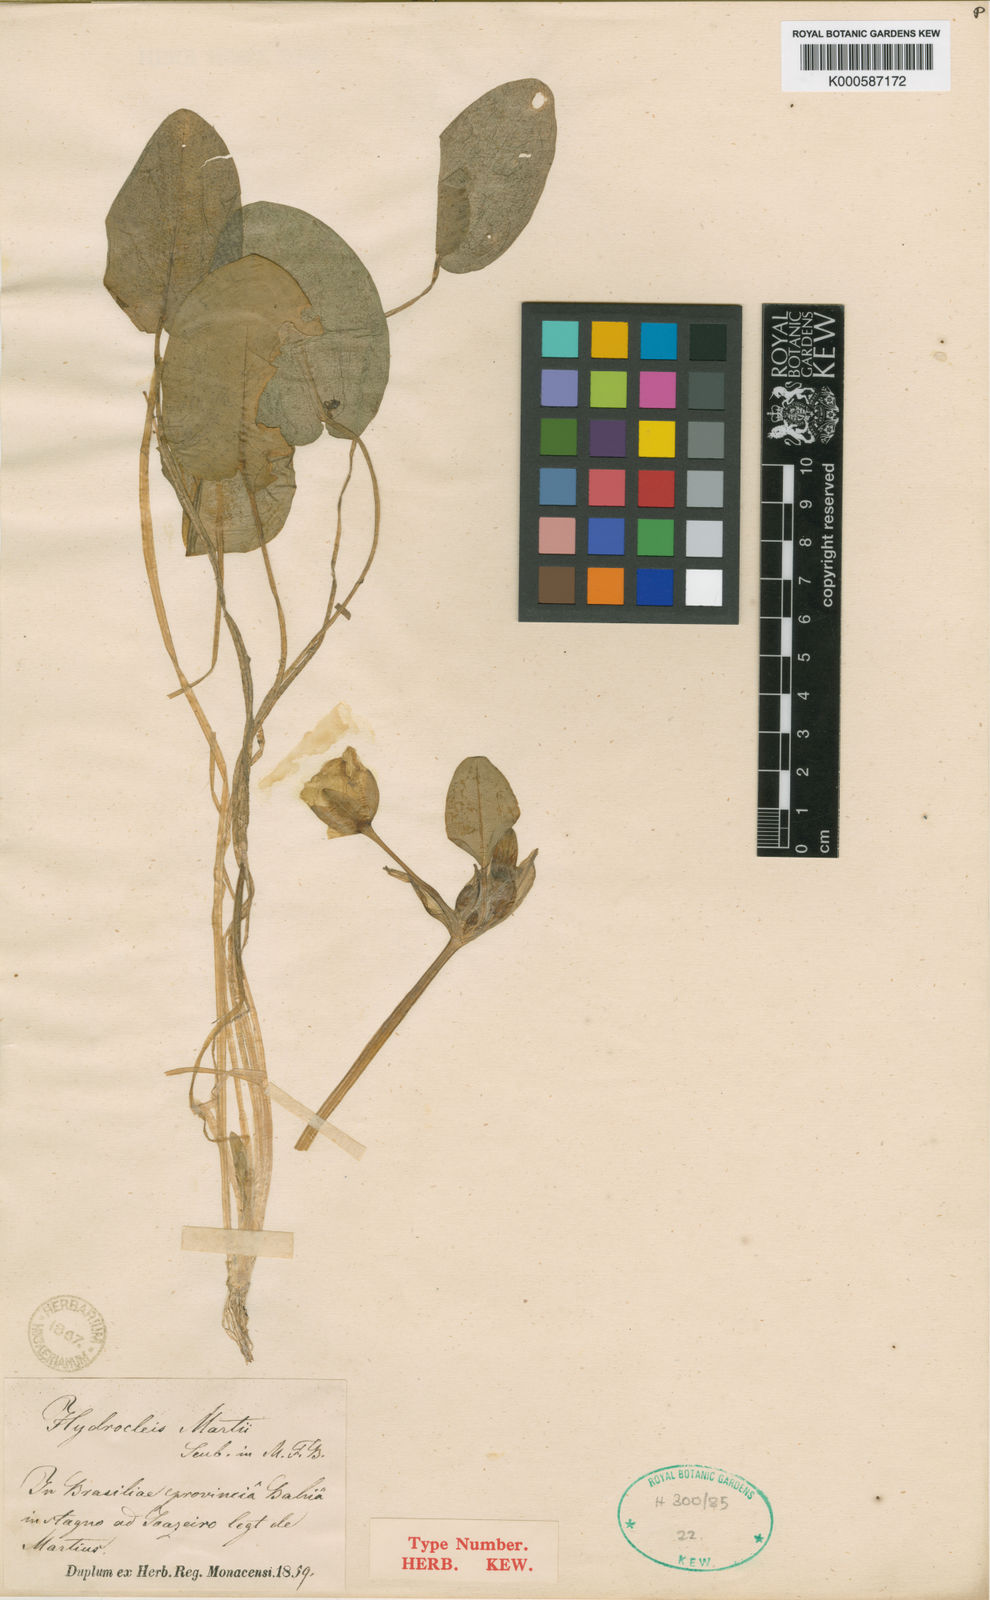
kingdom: Plantae
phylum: Tracheophyta
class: Liliopsida
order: Alismatales
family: Alismataceae
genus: Hydrocleys
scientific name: Hydrocleys martii
